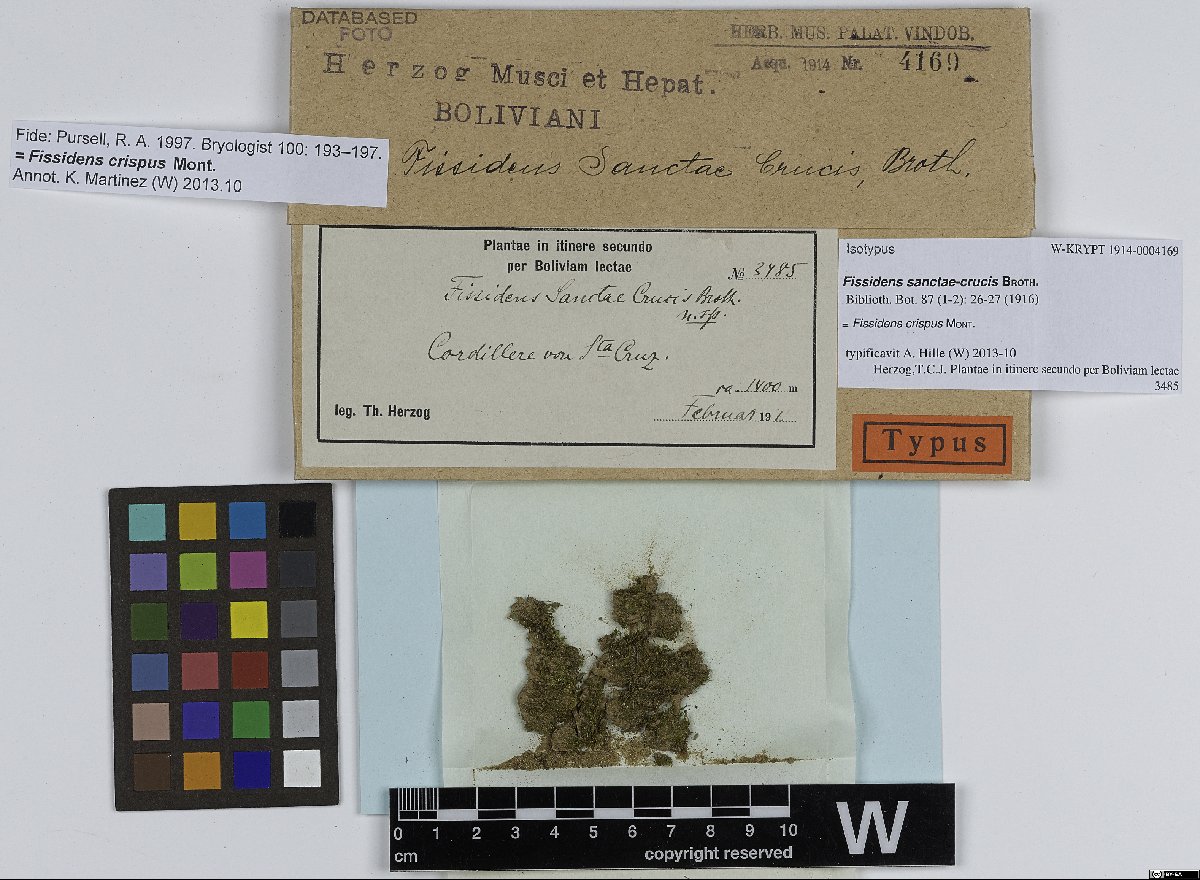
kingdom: Plantae
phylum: Bryophyta
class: Bryopsida
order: Dicranales
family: Fissidentaceae
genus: Fissidens
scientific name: Fissidens crispus
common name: Herzog's pocket-moss
